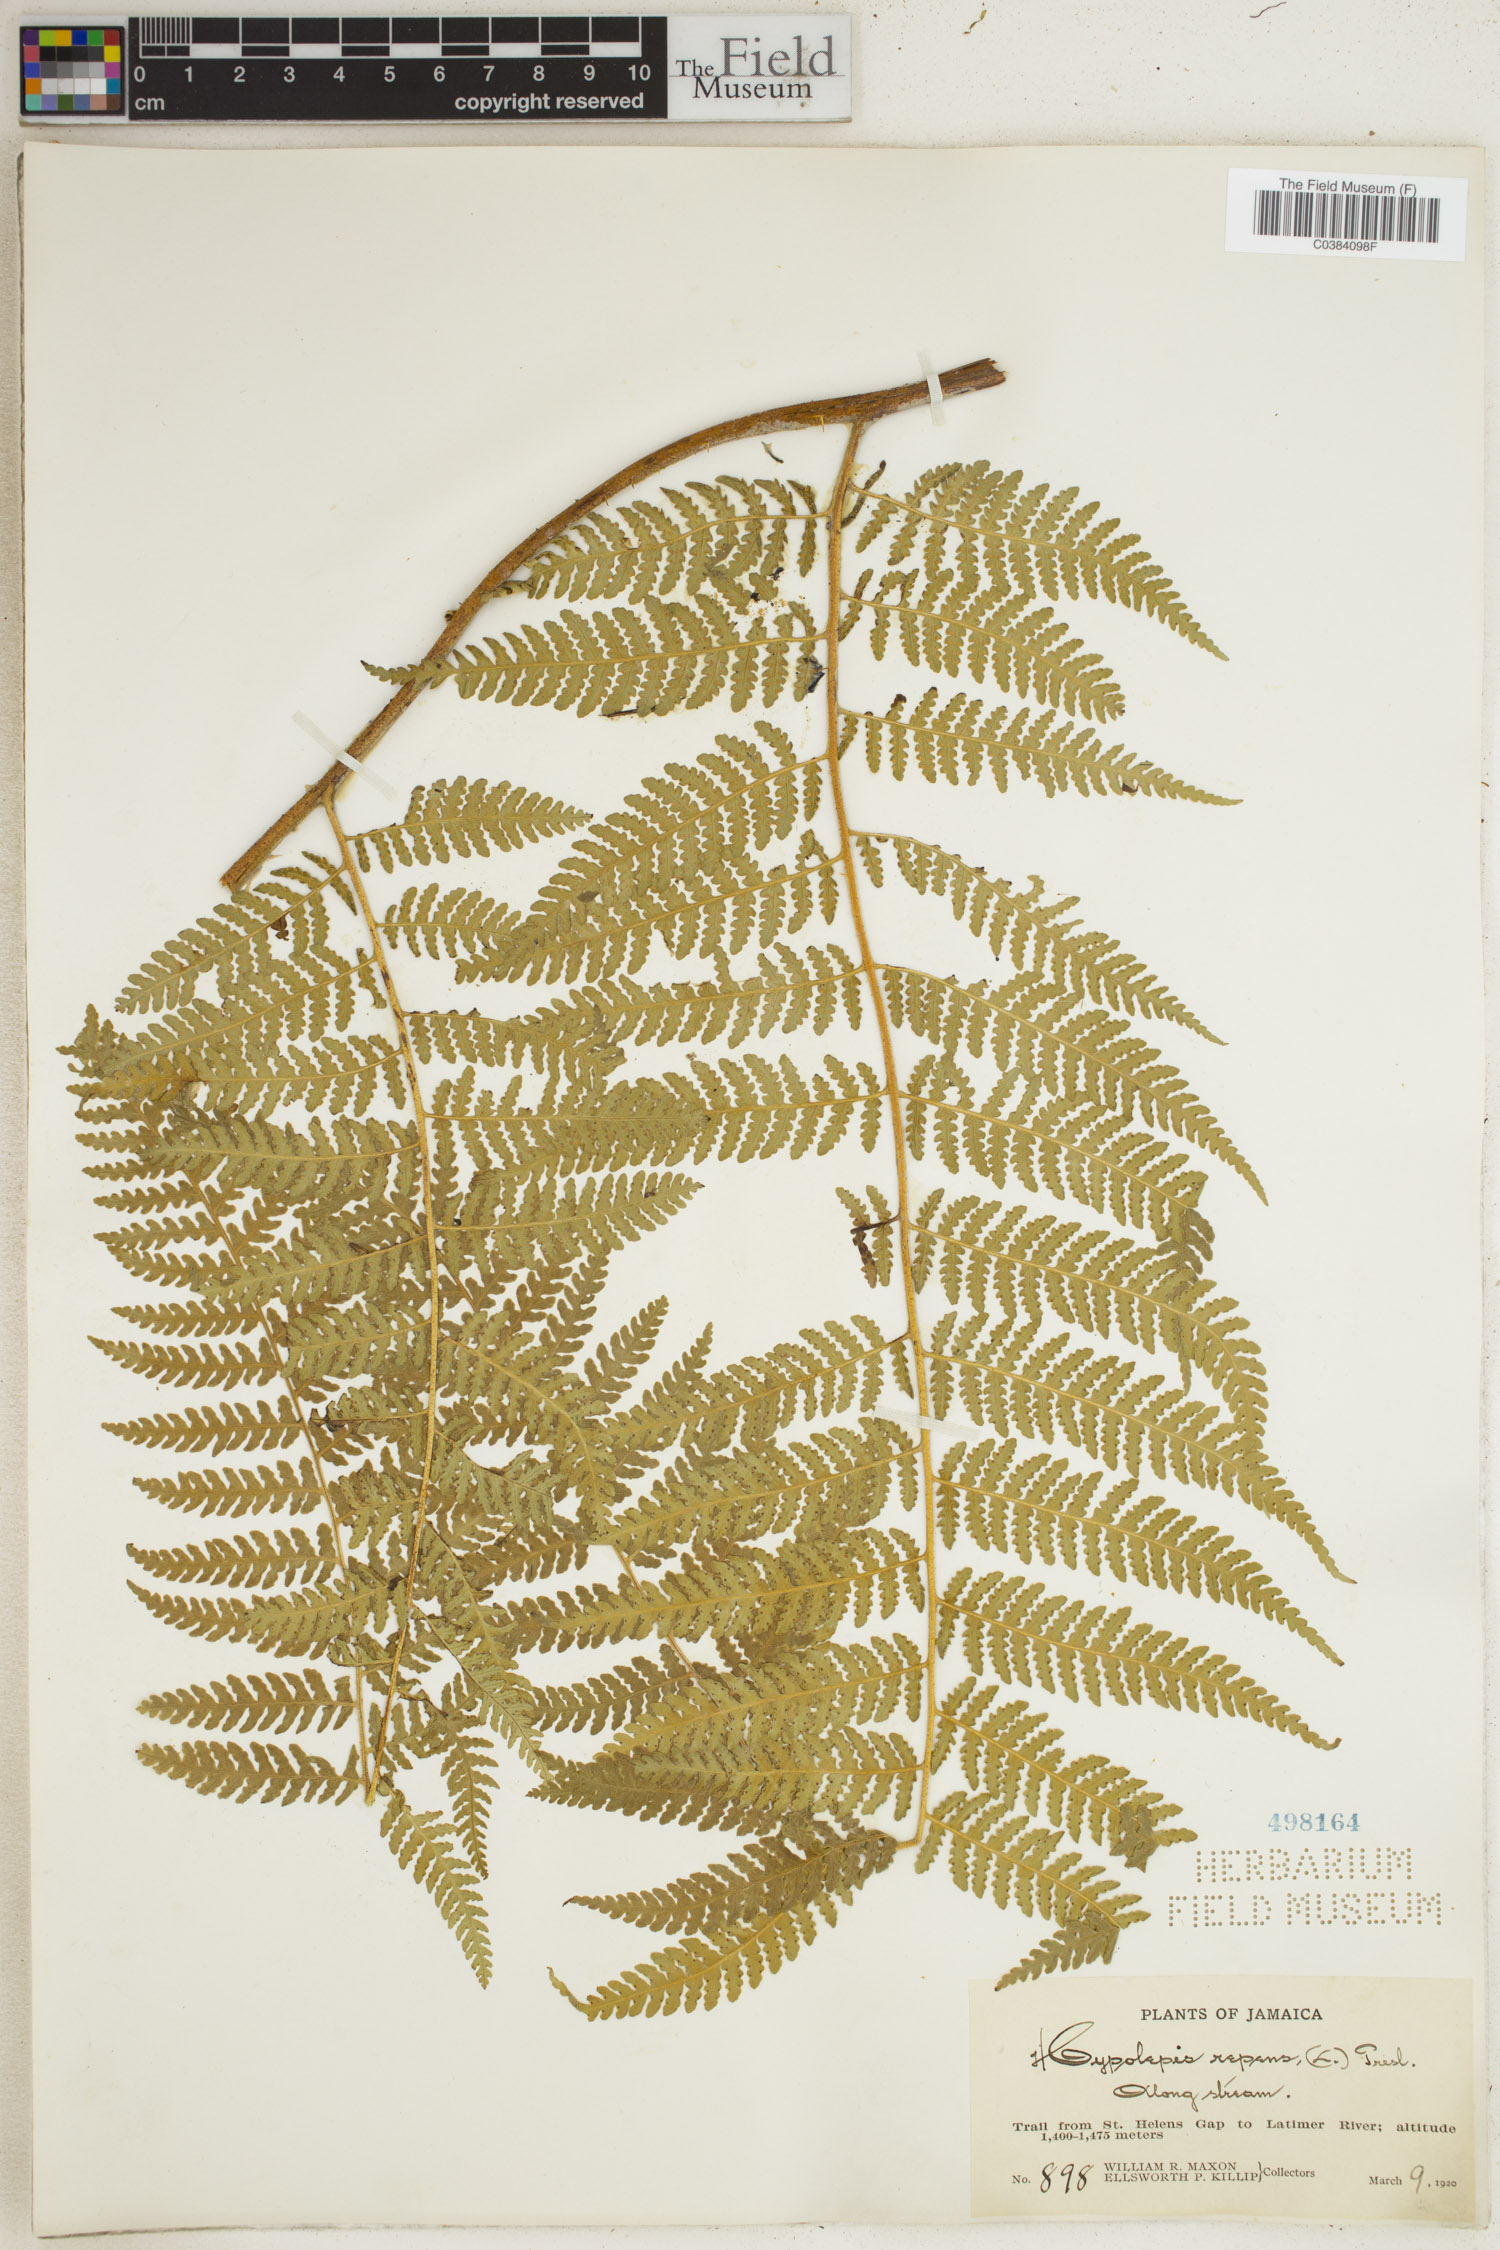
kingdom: Plantae
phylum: Tracheophyta
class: Polypodiopsida
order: Polypodiales
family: Dennstaedtiaceae
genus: Hypolepis
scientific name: Hypolepis repens
